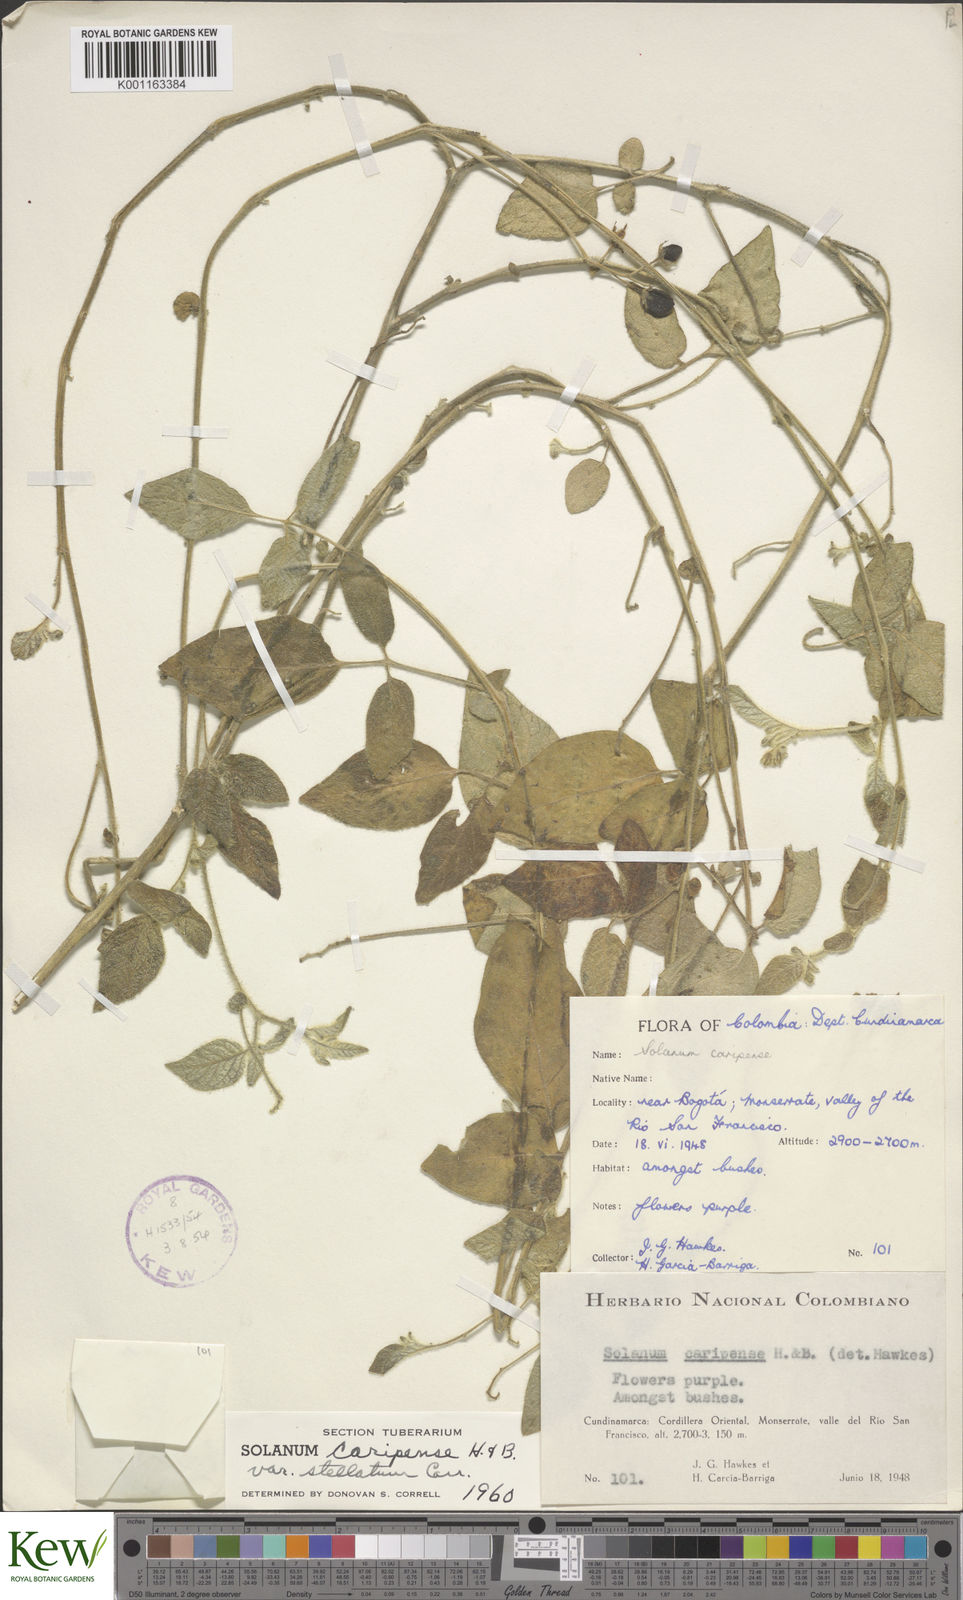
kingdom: Plantae
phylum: Tracheophyta
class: Magnoliopsida
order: Solanales
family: Solanaceae
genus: Solanum
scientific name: Solanum caripense
